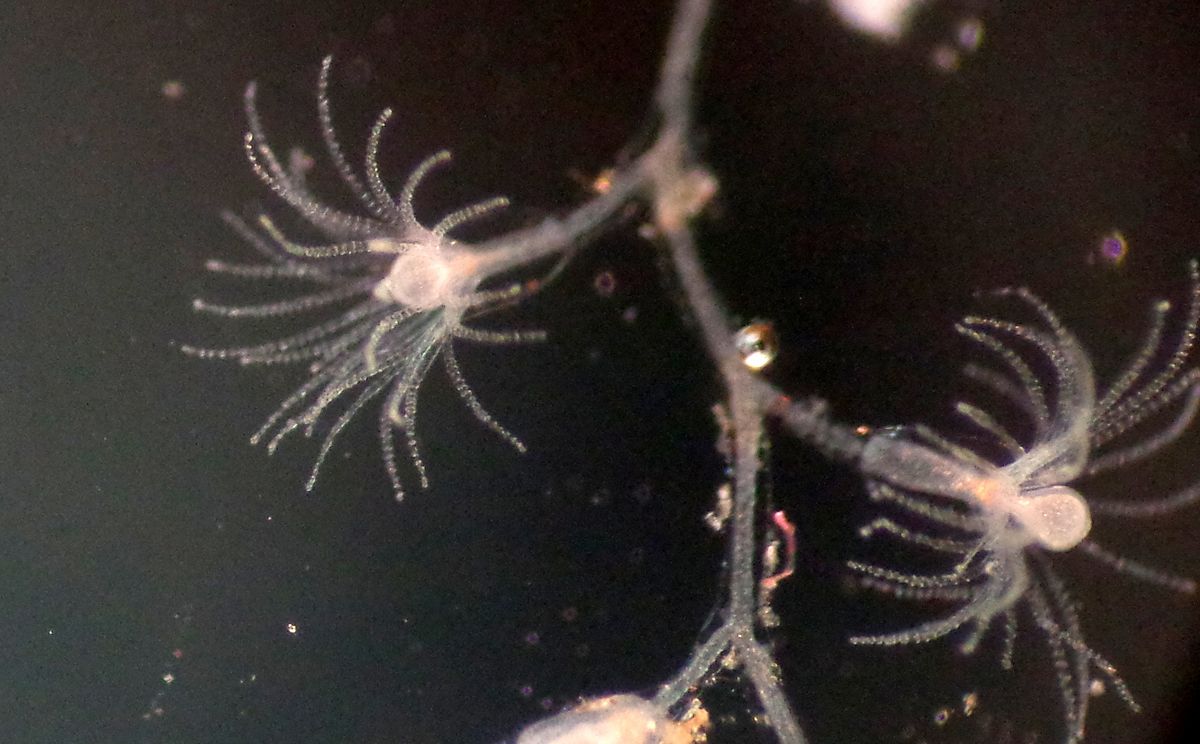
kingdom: Animalia
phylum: Cnidaria
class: Hydrozoa
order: Leptothecata
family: Campanulariidae
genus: Obelia
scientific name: Obelia geniculata
